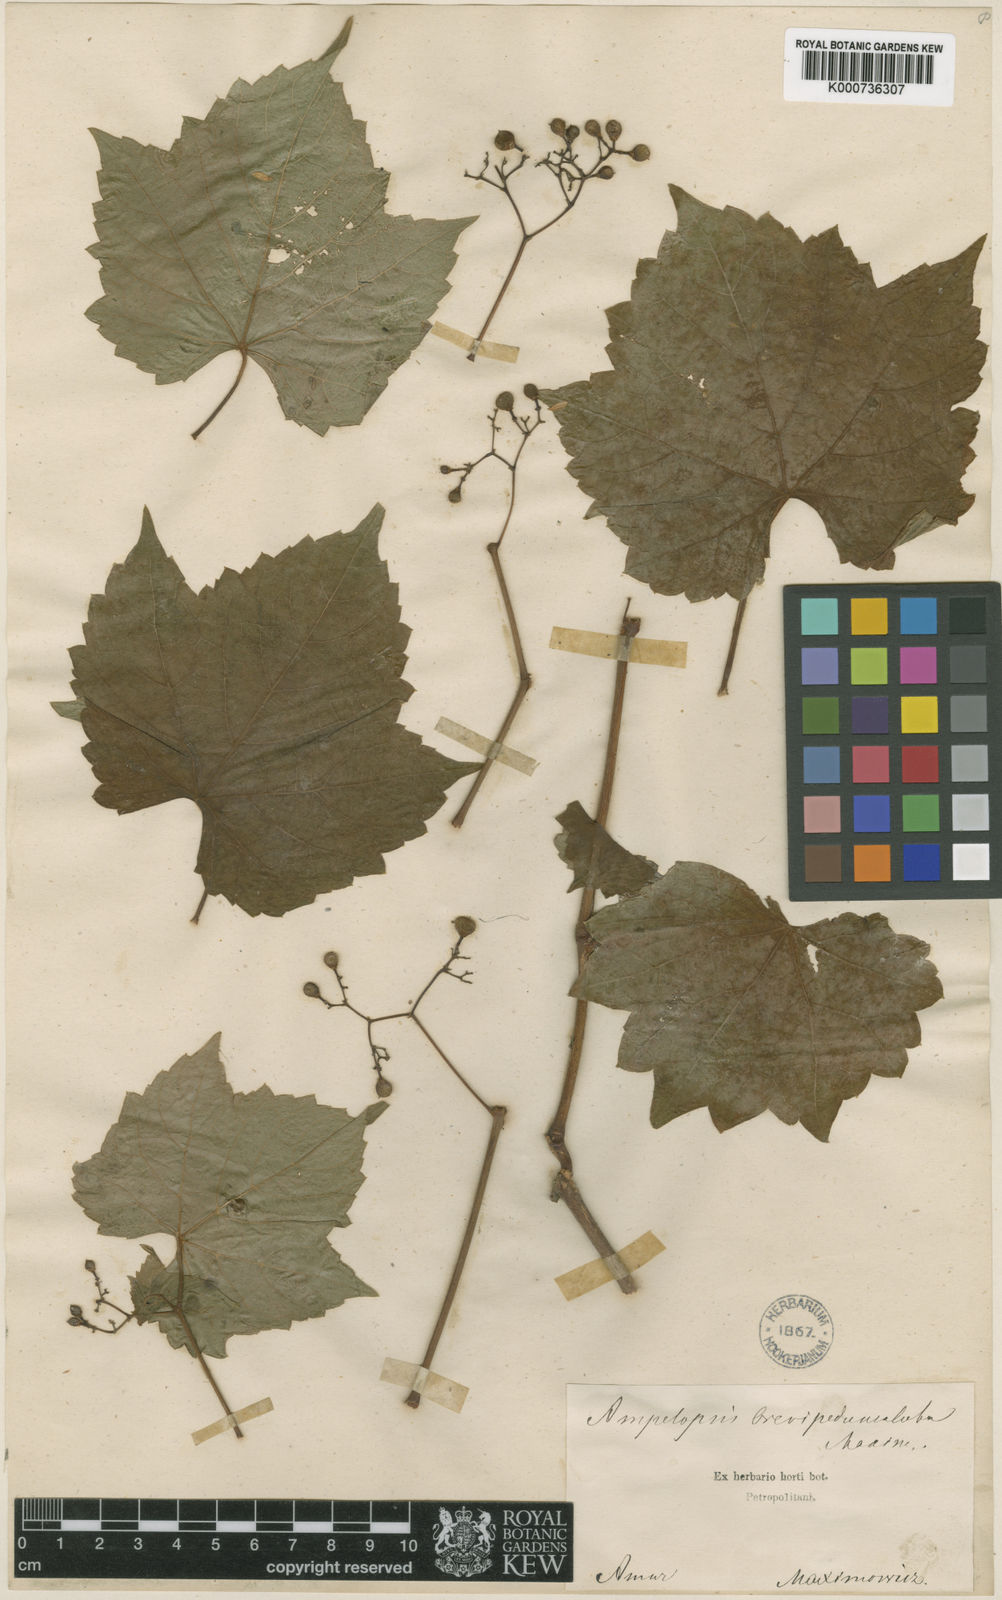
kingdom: Plantae
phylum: Tracheophyta
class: Magnoliopsida
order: Vitales
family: Vitaceae
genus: Ampelopsis
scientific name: Ampelopsis glandulosa
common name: Amur peppervine
